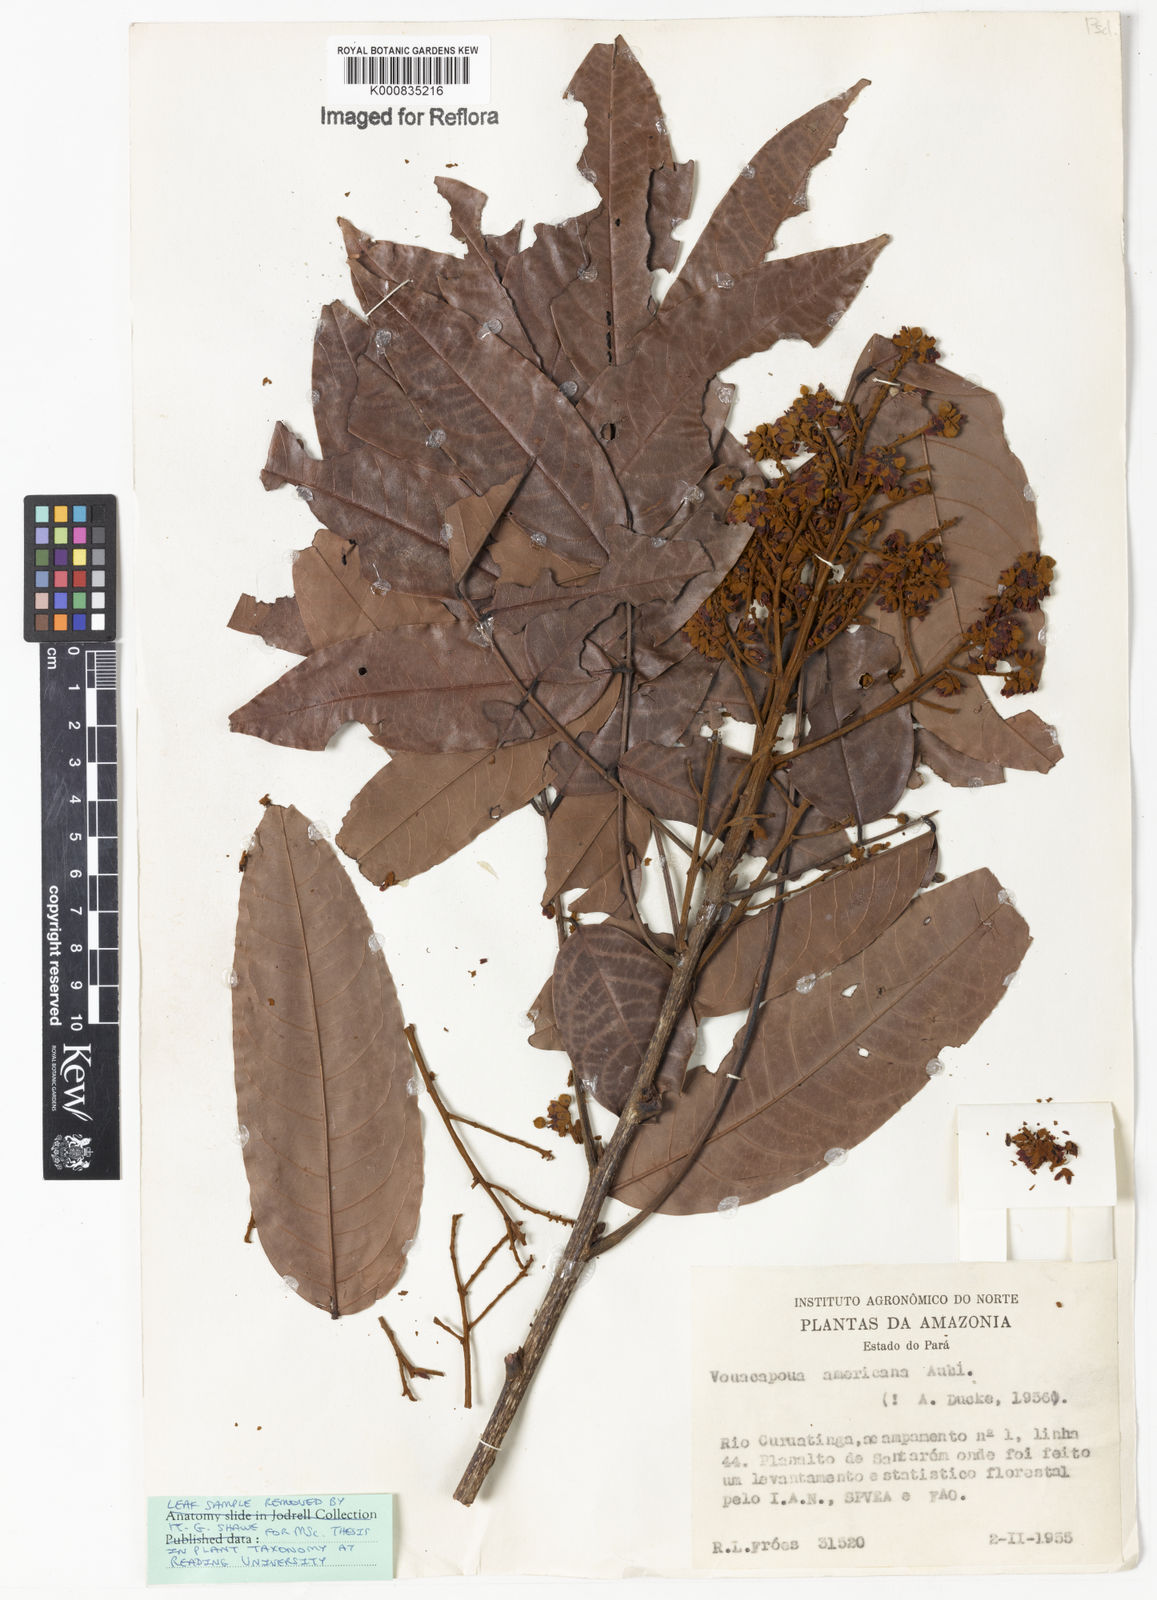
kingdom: Plantae
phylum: Tracheophyta
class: Magnoliopsida
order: Fabales
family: Fabaceae
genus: Vouacapoua
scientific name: Vouacapoua americana
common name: Partridgewood
